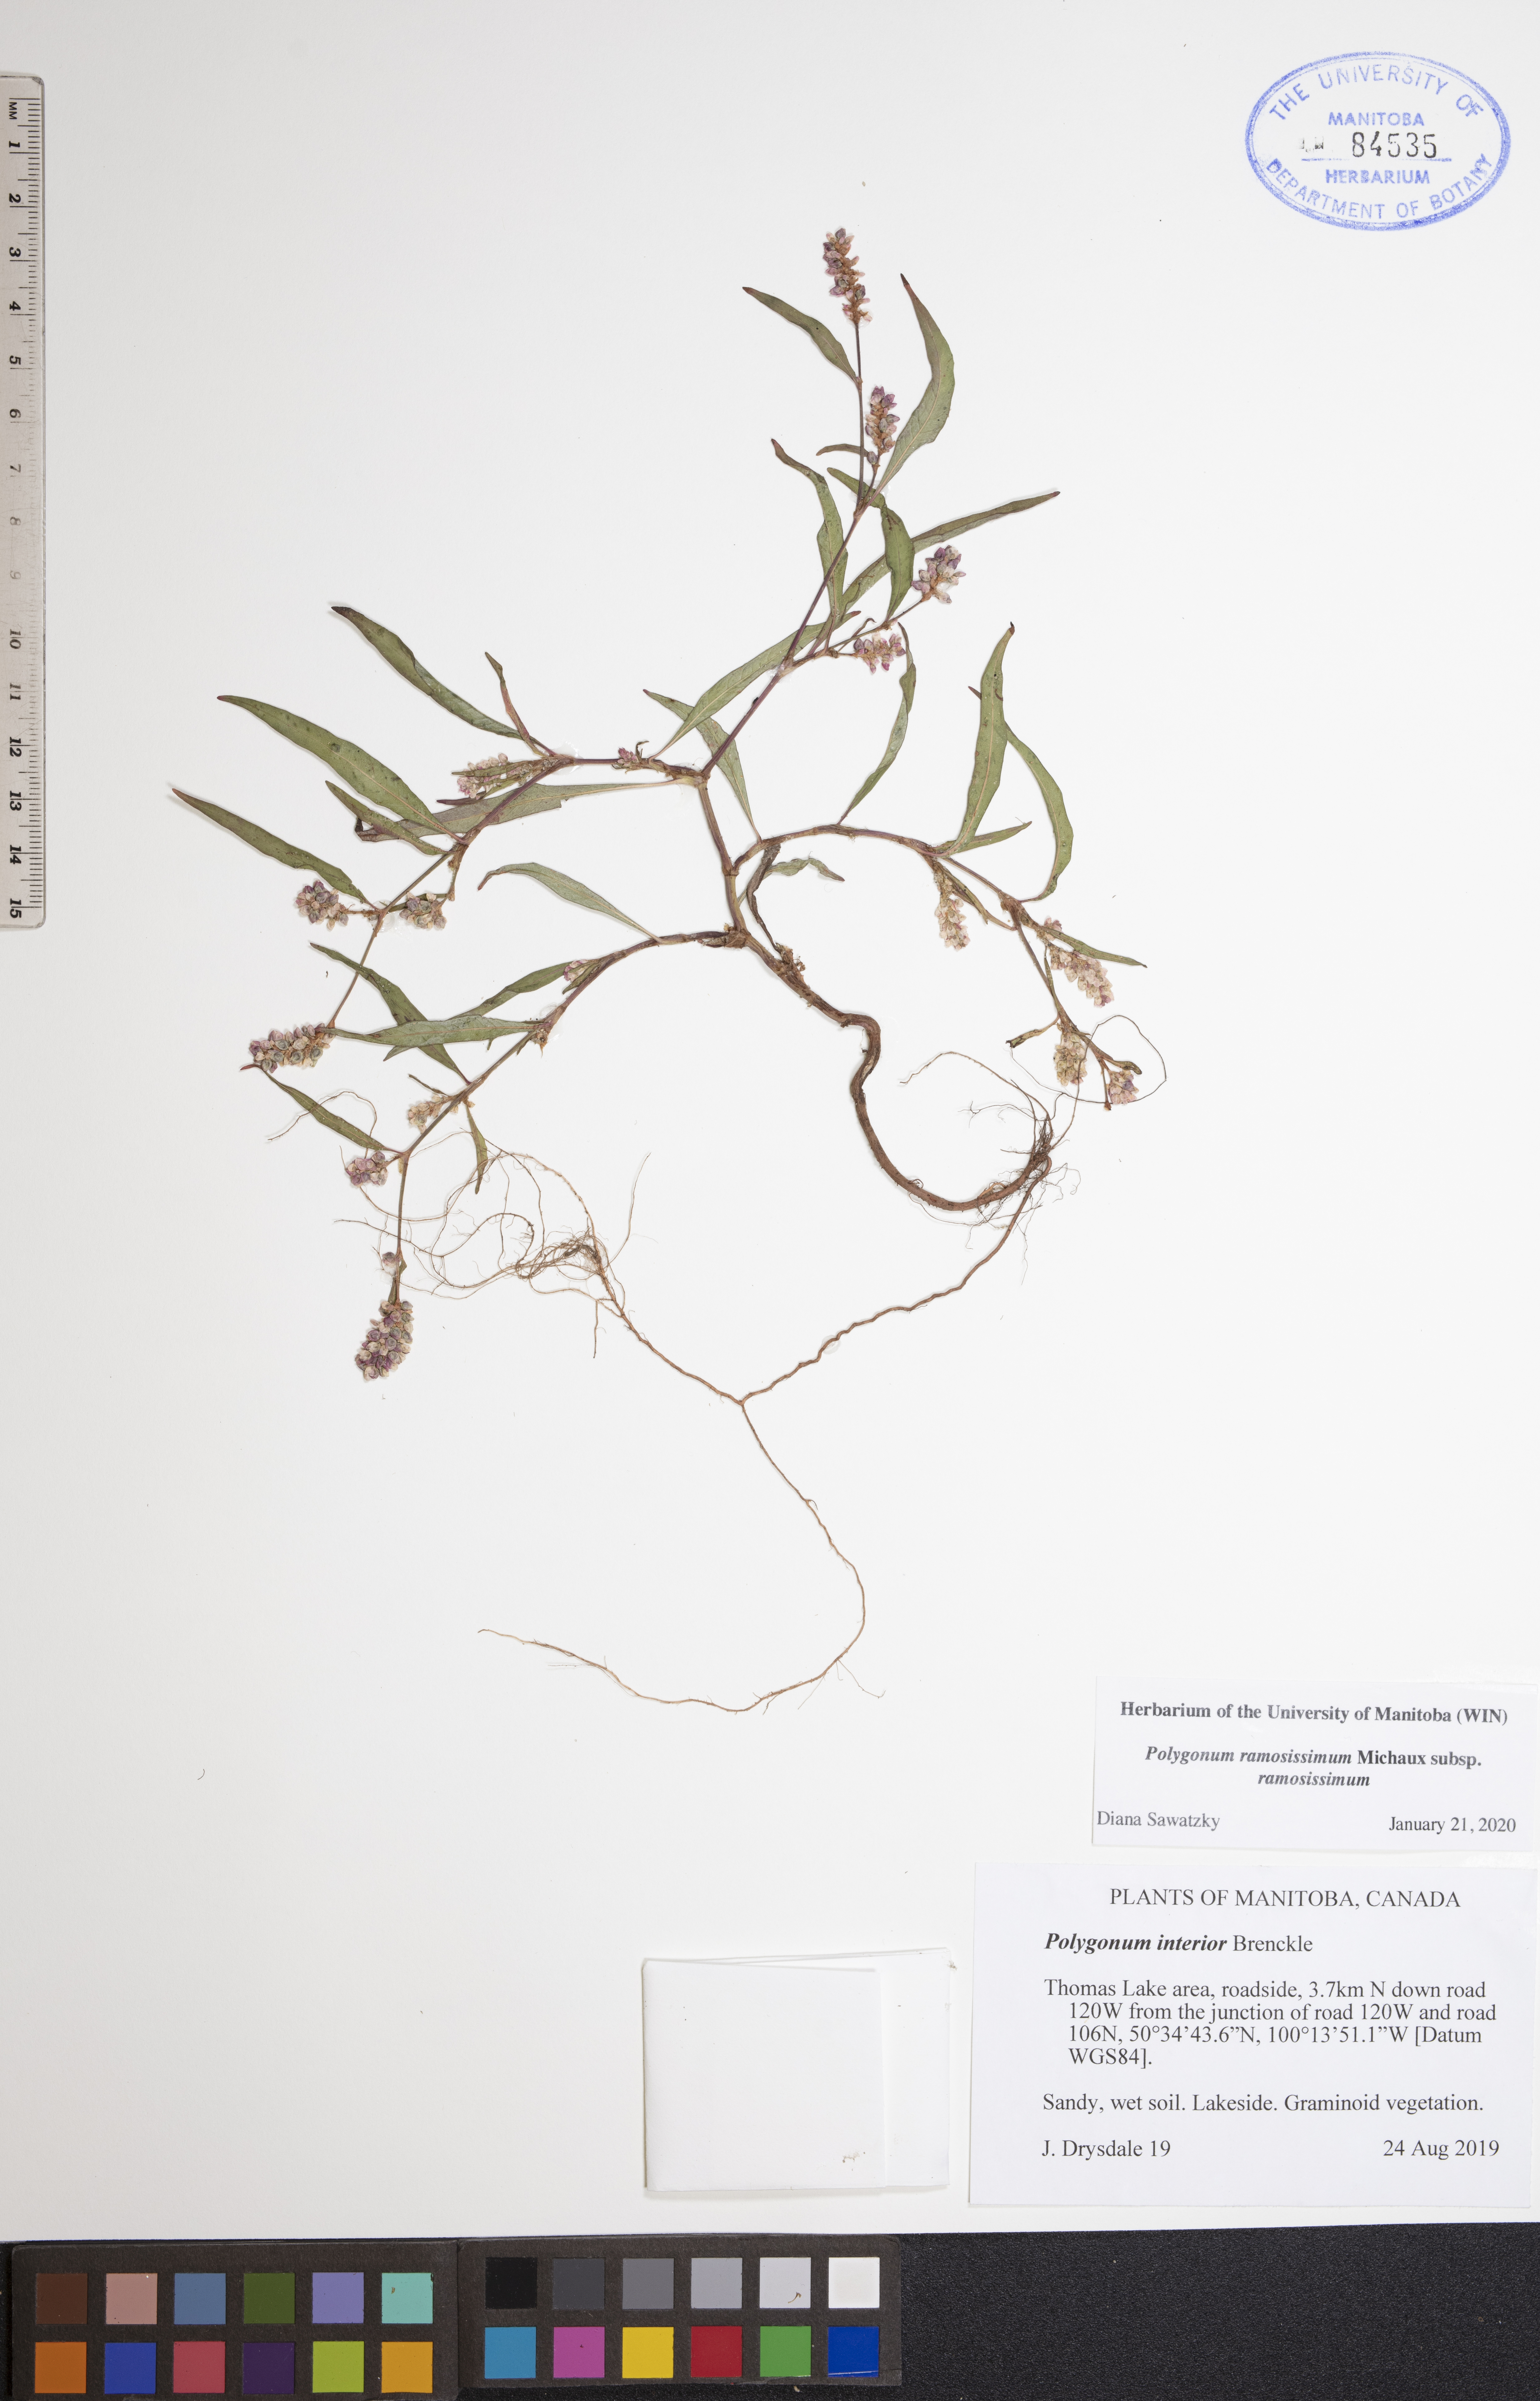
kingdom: Plantae
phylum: Tracheophyta
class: Magnoliopsida
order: Caryophyllales
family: Polygonaceae
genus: Polygonum
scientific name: Polygonum ramosissimum
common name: Bushy knotweed
